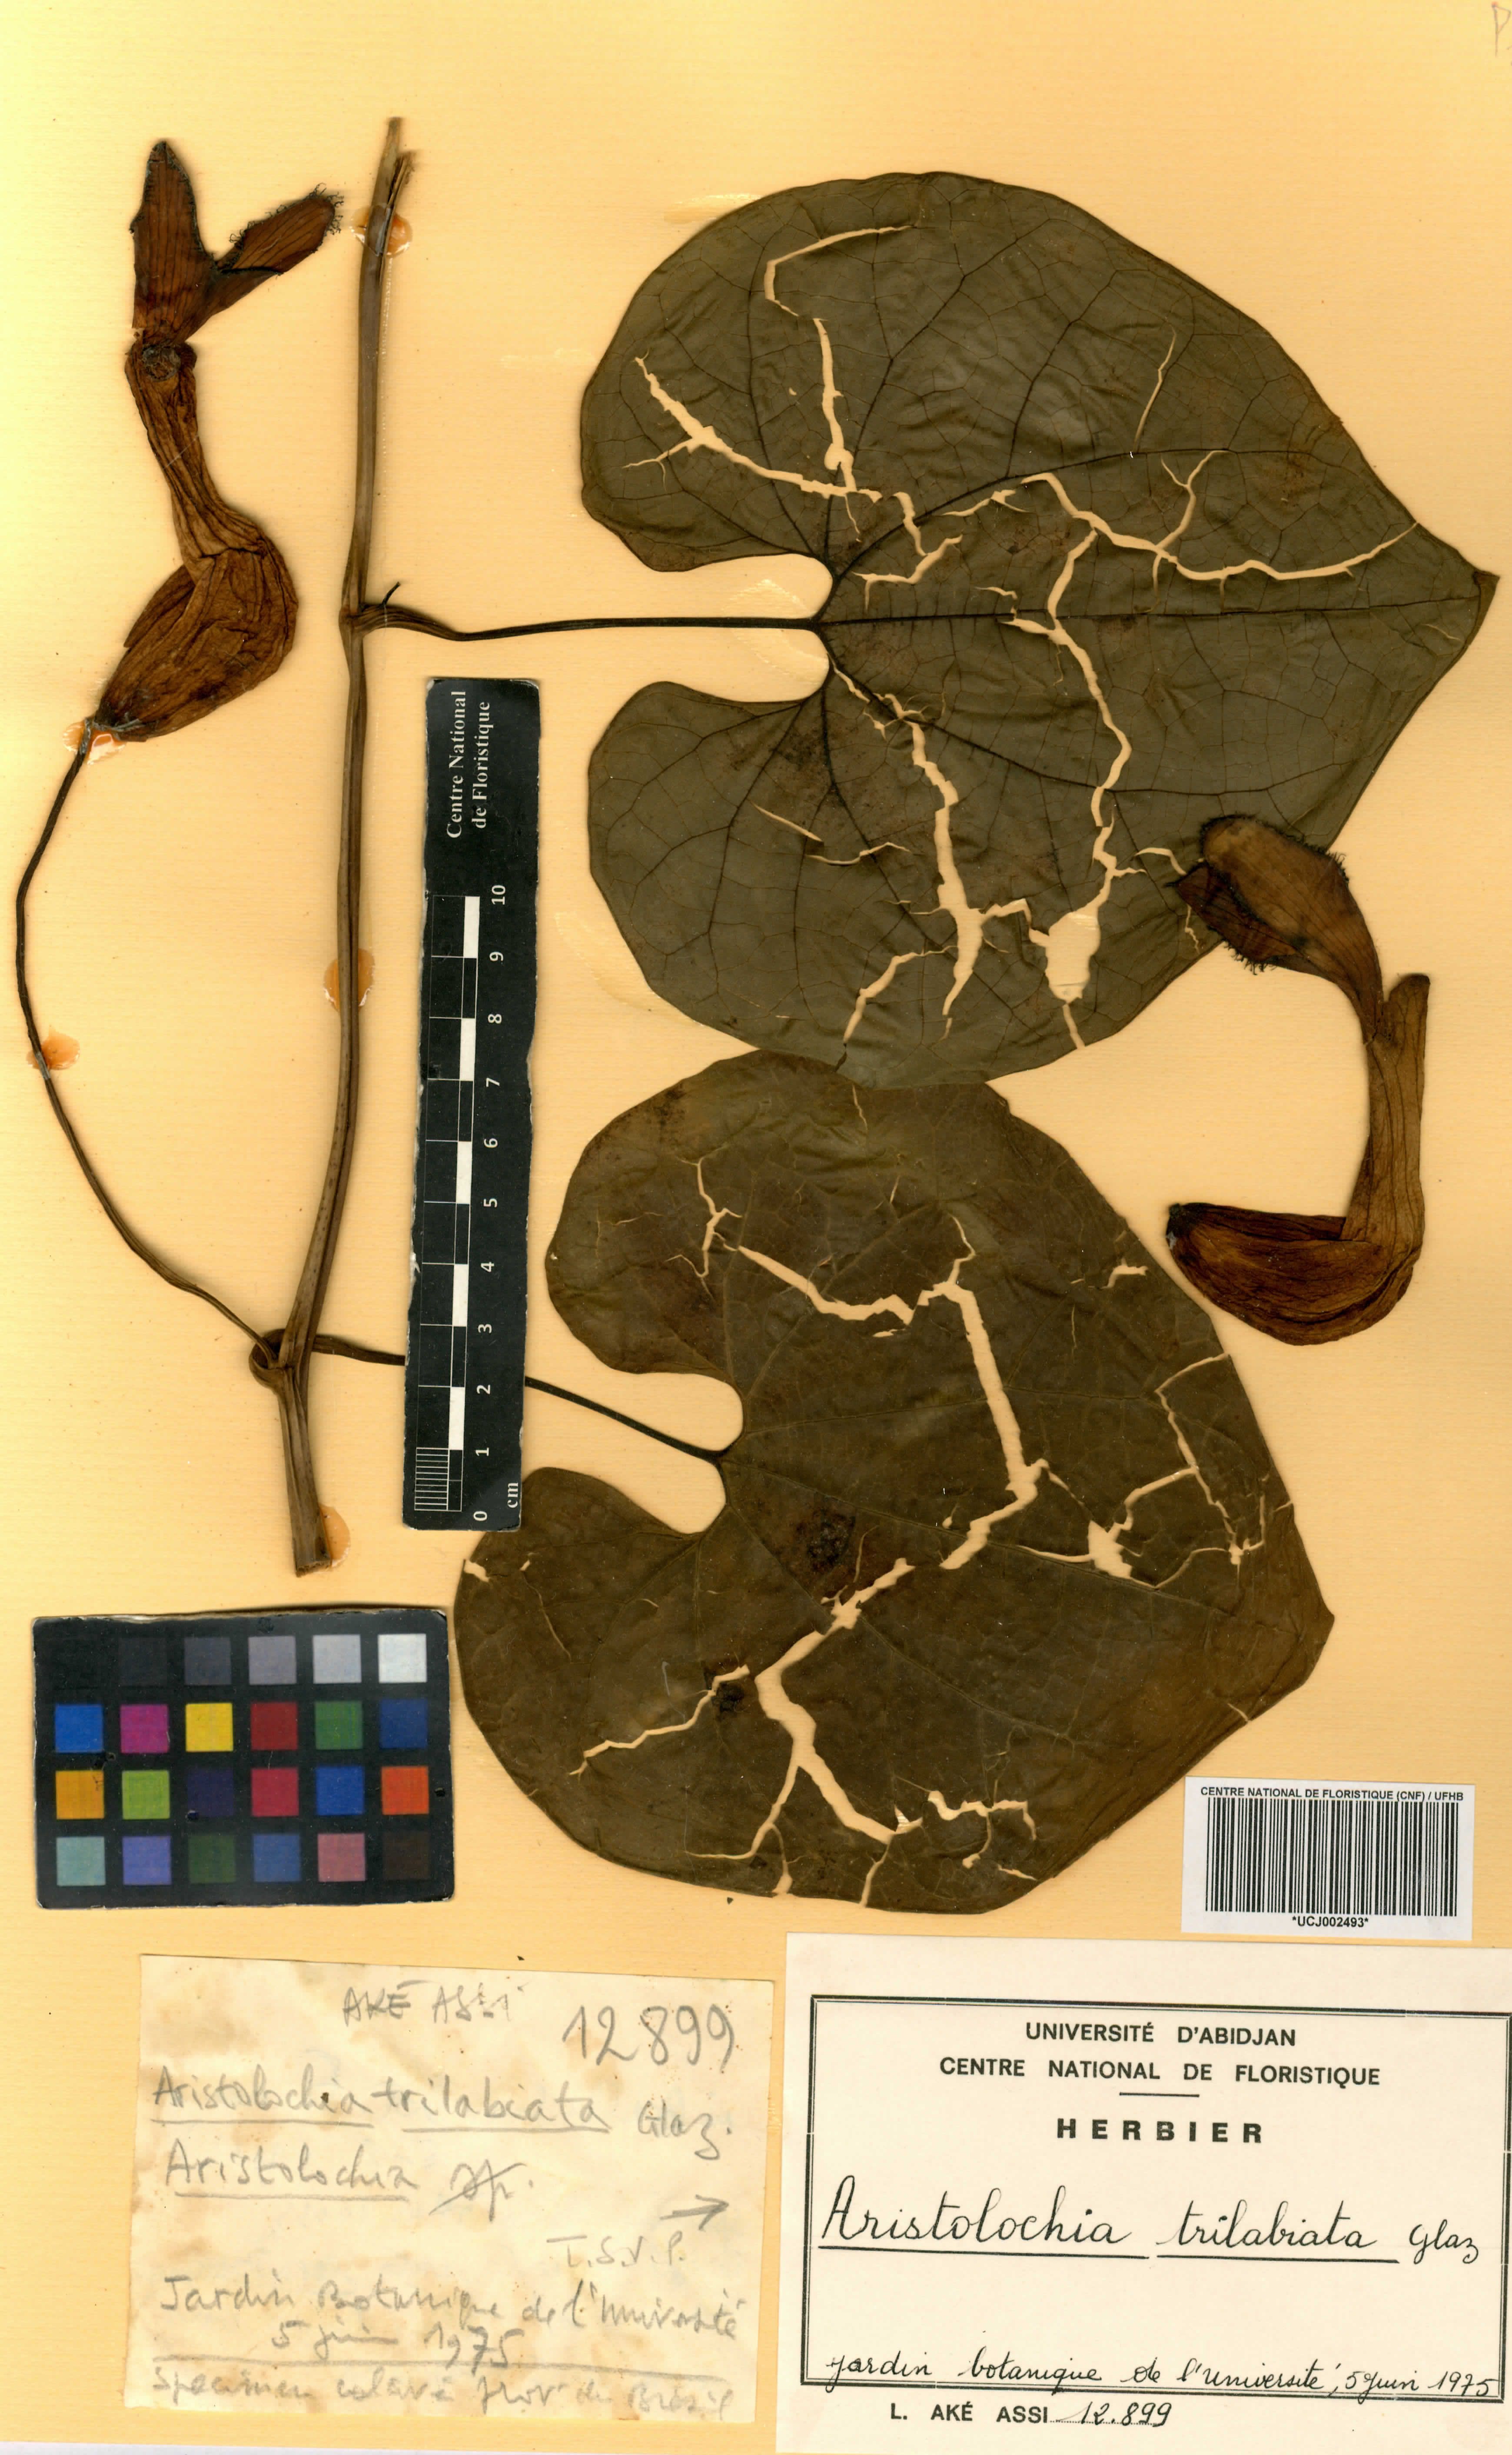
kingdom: Plantae
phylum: Tracheophyta
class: Magnoliopsida
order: Piperales
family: Aristolochiaceae
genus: Aristolochia
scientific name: Aristolochia trilabiata
